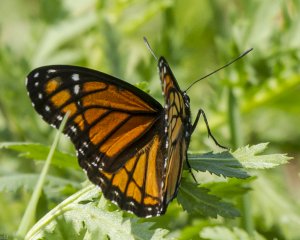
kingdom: Animalia
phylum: Arthropoda
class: Insecta
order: Lepidoptera
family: Nymphalidae
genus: Limenitis
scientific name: Limenitis archippus
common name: Viceroy
